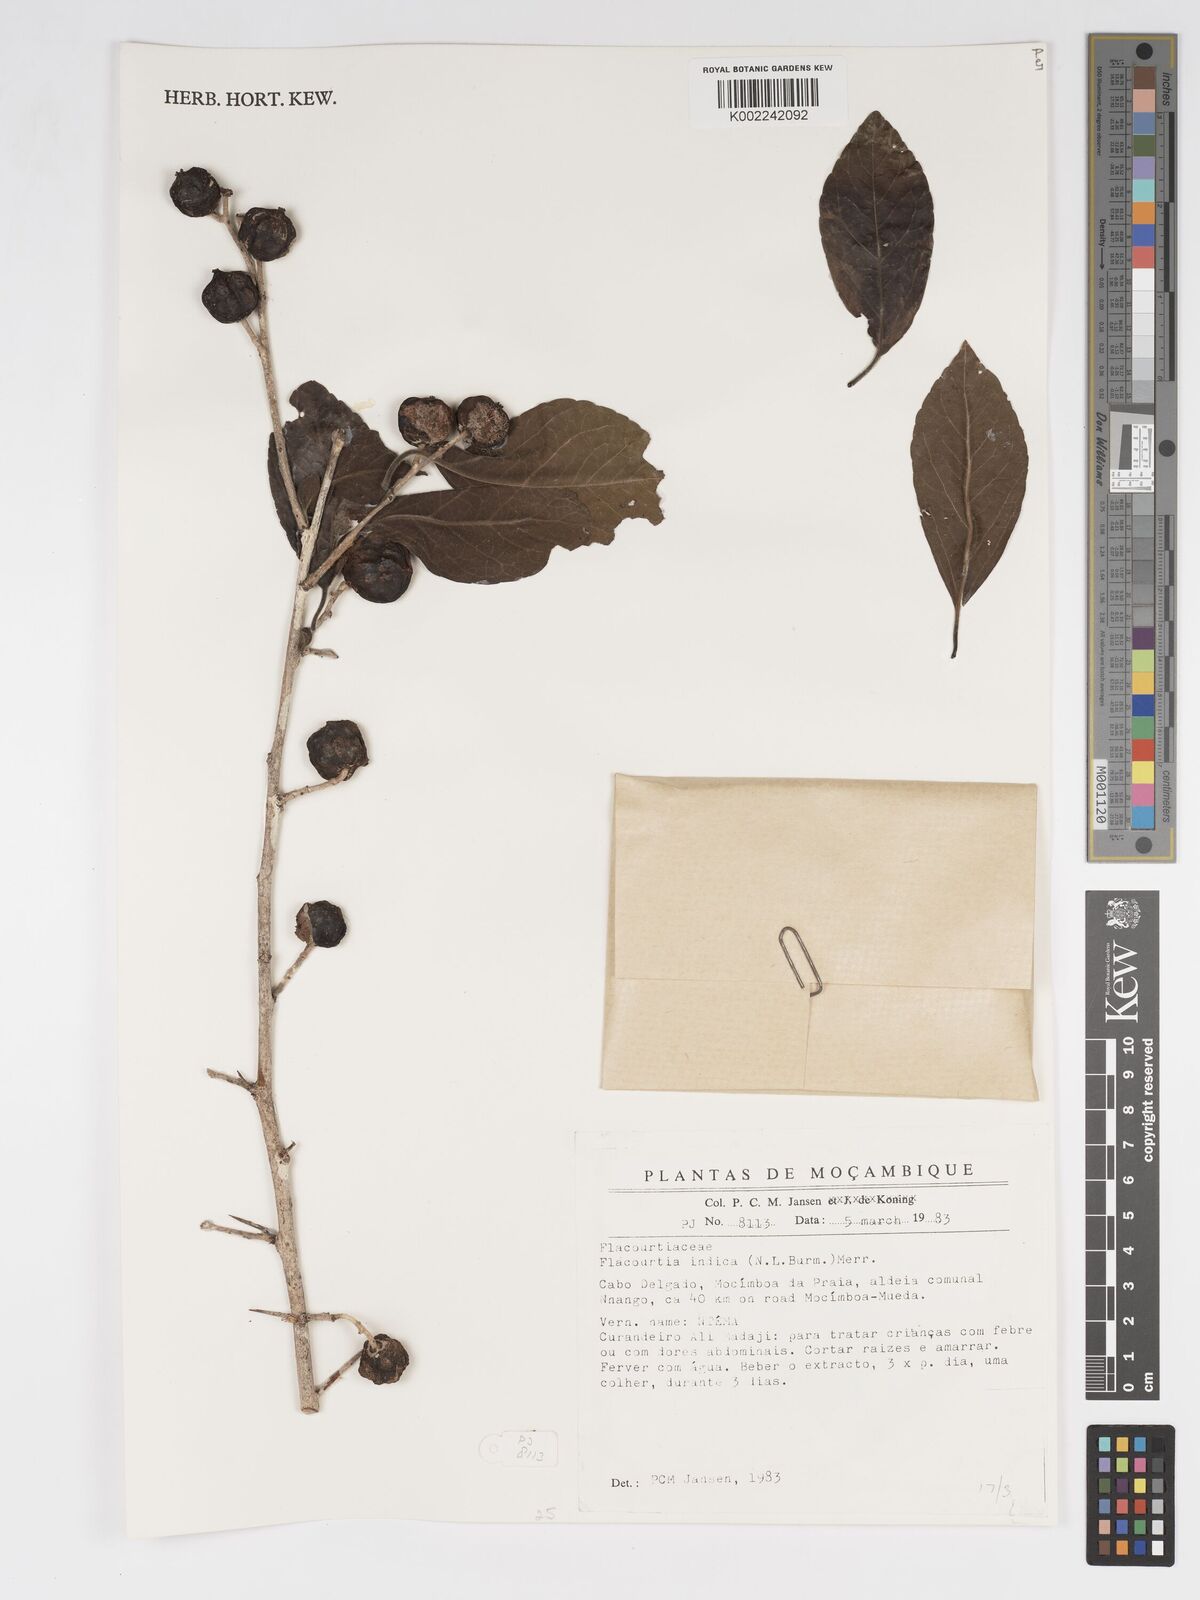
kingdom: Plantae
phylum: Tracheophyta
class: Magnoliopsida
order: Malpighiales
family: Salicaceae
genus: Flacourtia
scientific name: Flacourtia indica
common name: Governor's plum
